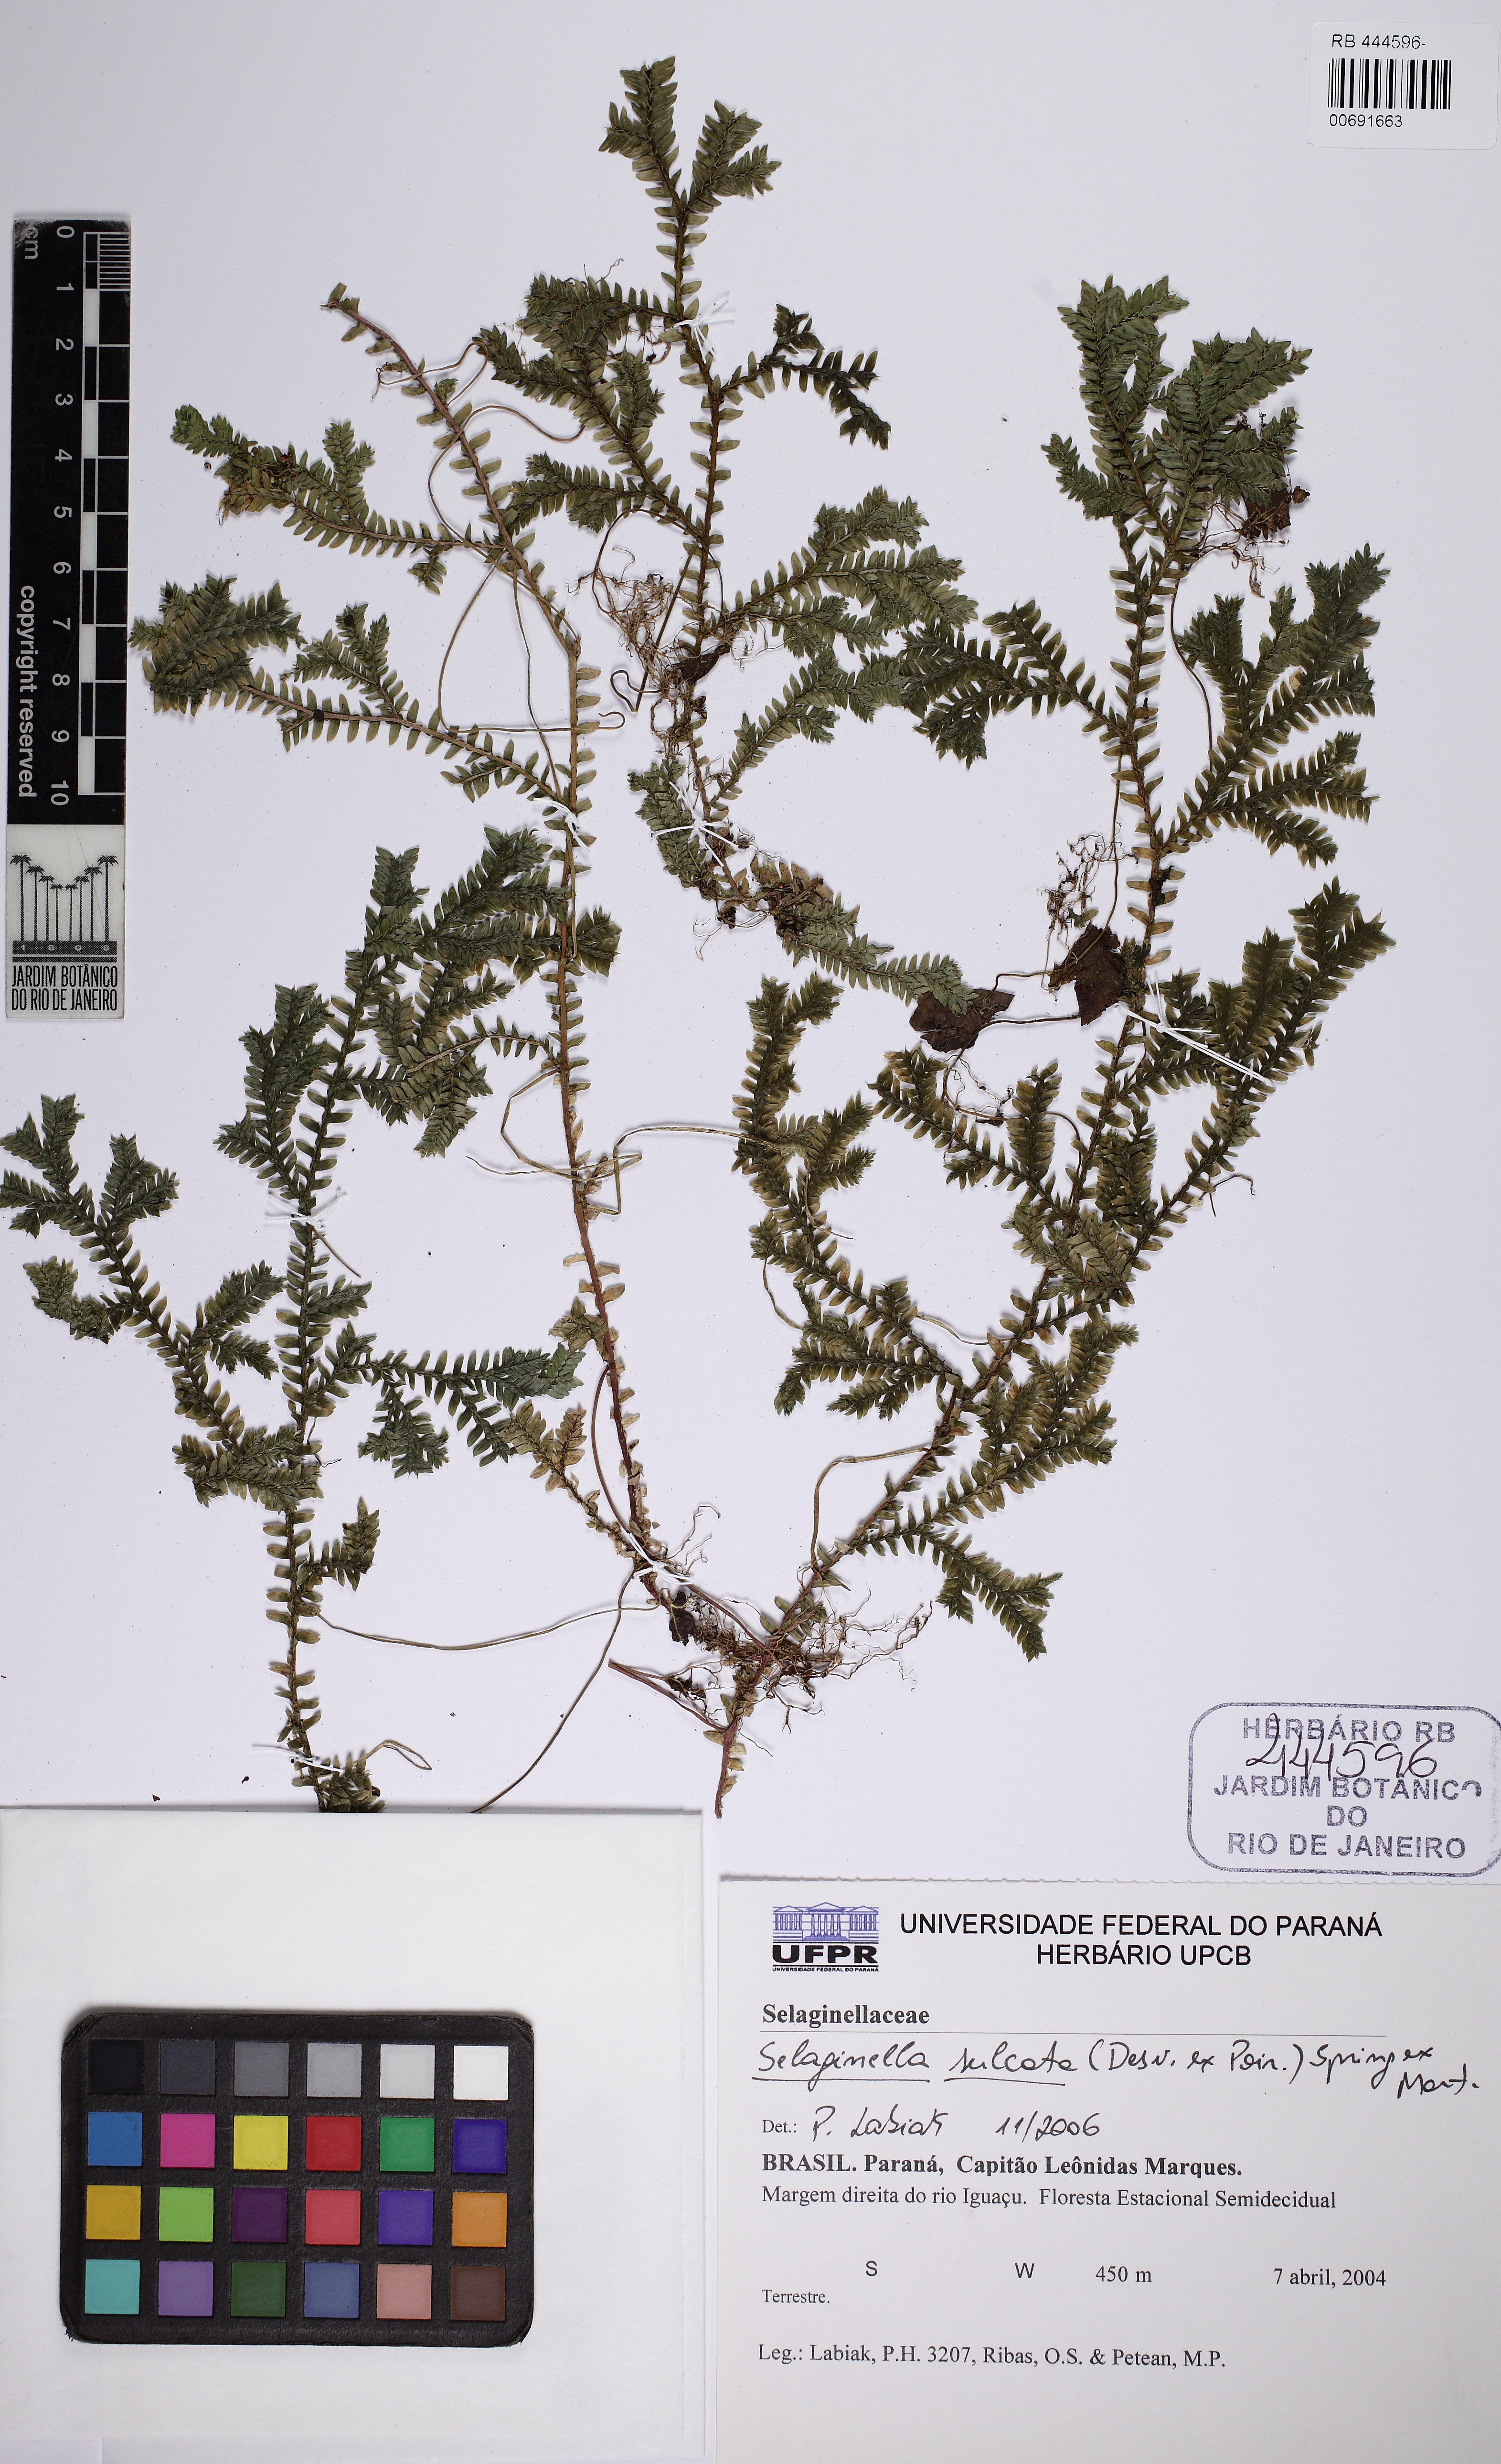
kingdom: Plantae
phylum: Tracheophyta
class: Lycopodiopsida
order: Selaginellales
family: Selaginellaceae
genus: Selaginella
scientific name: Selaginella sulcata
